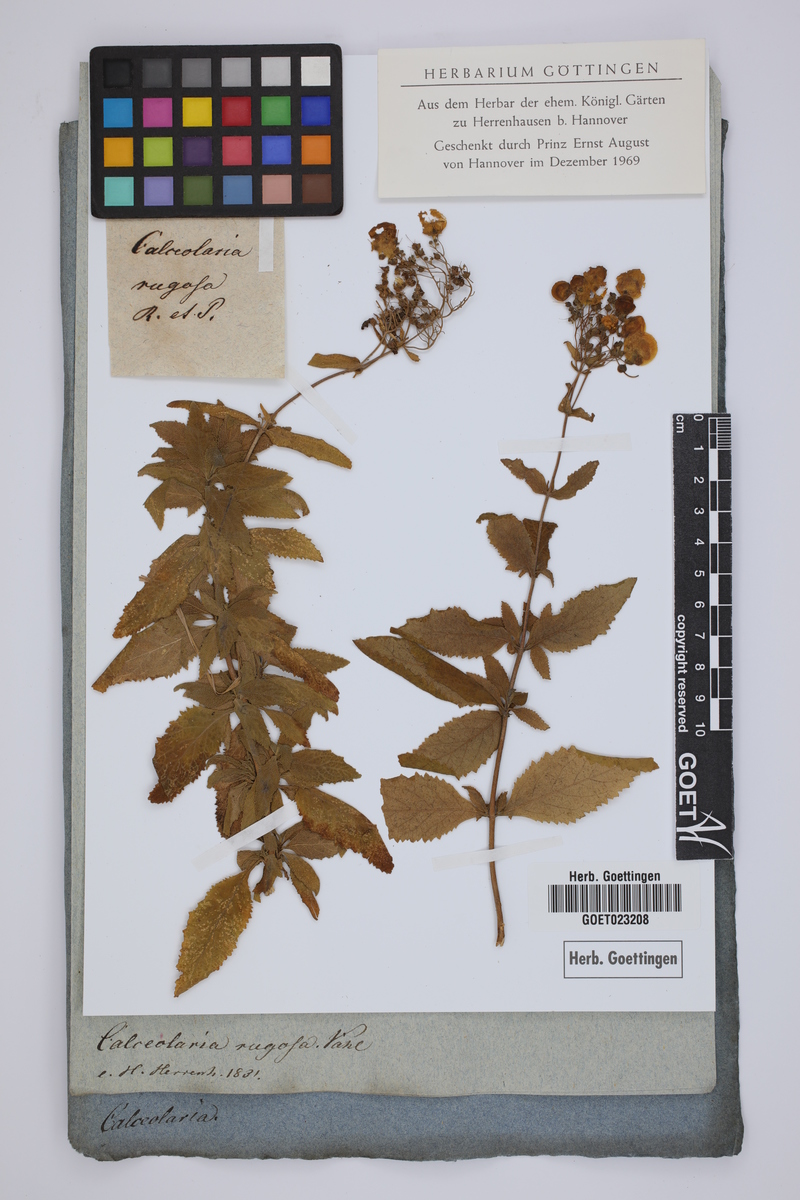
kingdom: Plantae
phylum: Tracheophyta
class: Magnoliopsida
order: Lamiales
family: Calceolariaceae
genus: Calceolaria
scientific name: Calceolaria integrifolia
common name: Bush slipperwort
